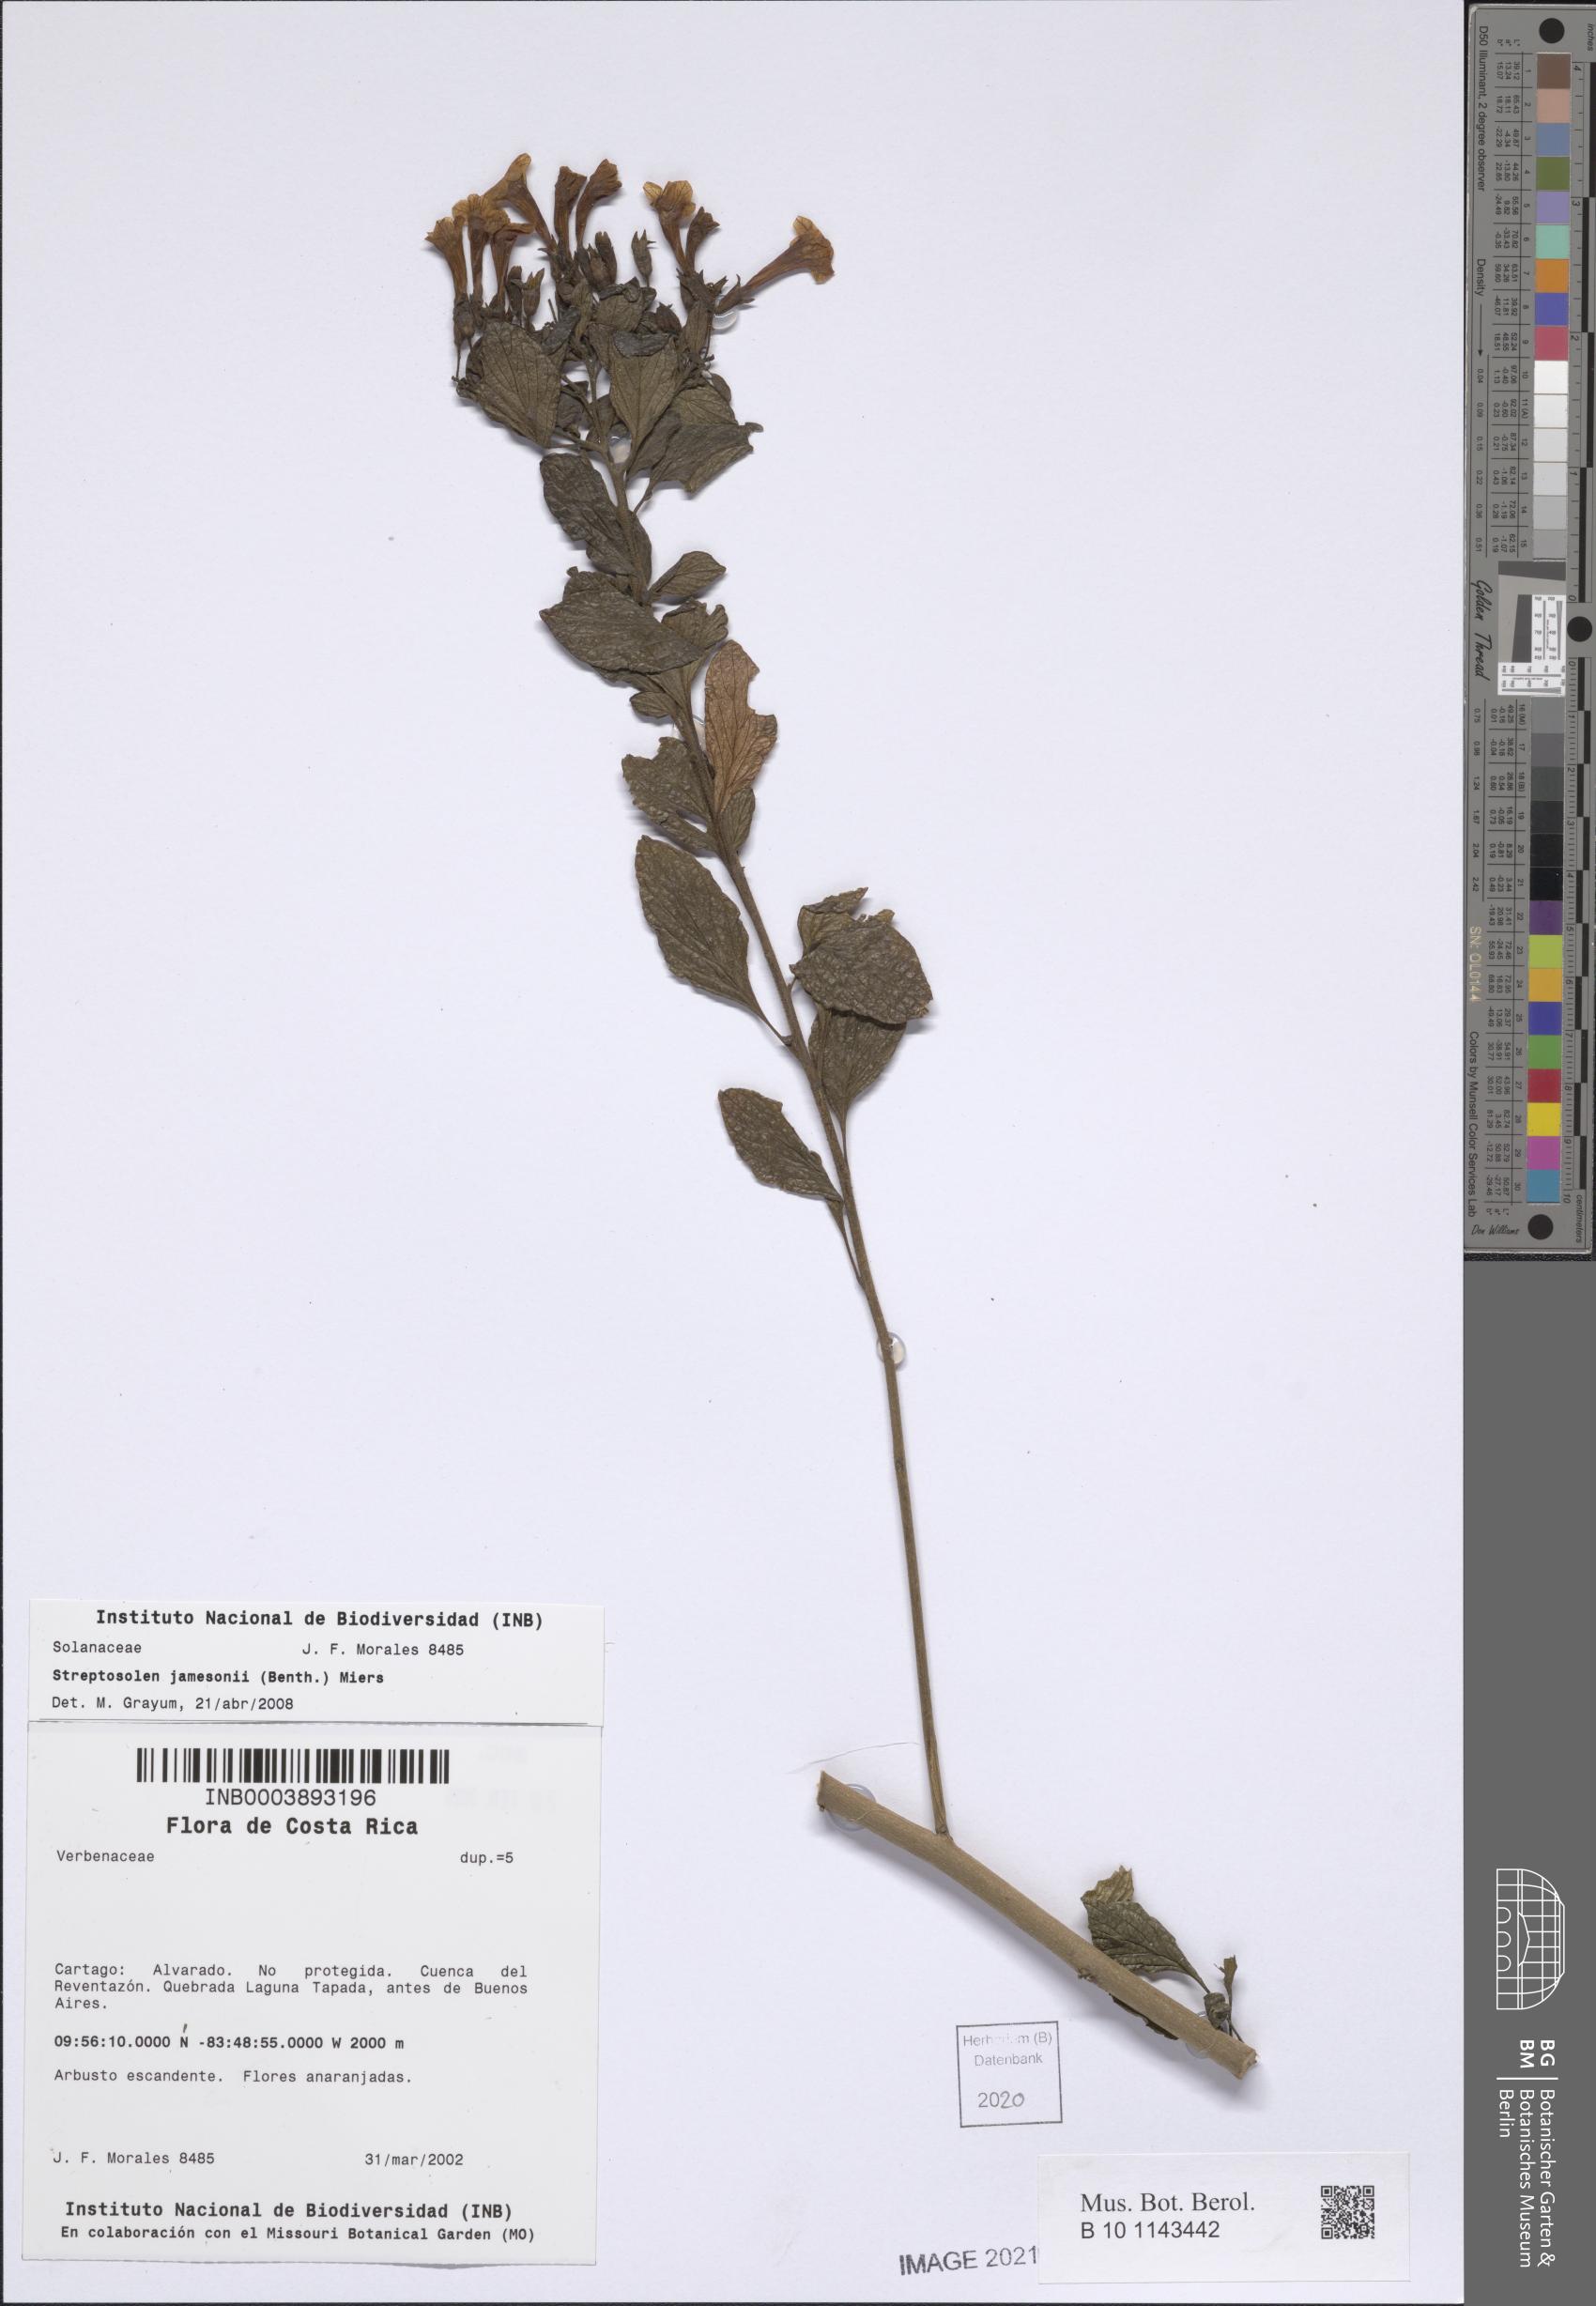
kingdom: Plantae
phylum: Tracheophyta
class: Magnoliopsida
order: Solanales
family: Solanaceae
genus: Streptosolen
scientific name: Streptosolen jamesonii
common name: Marmalade bush
